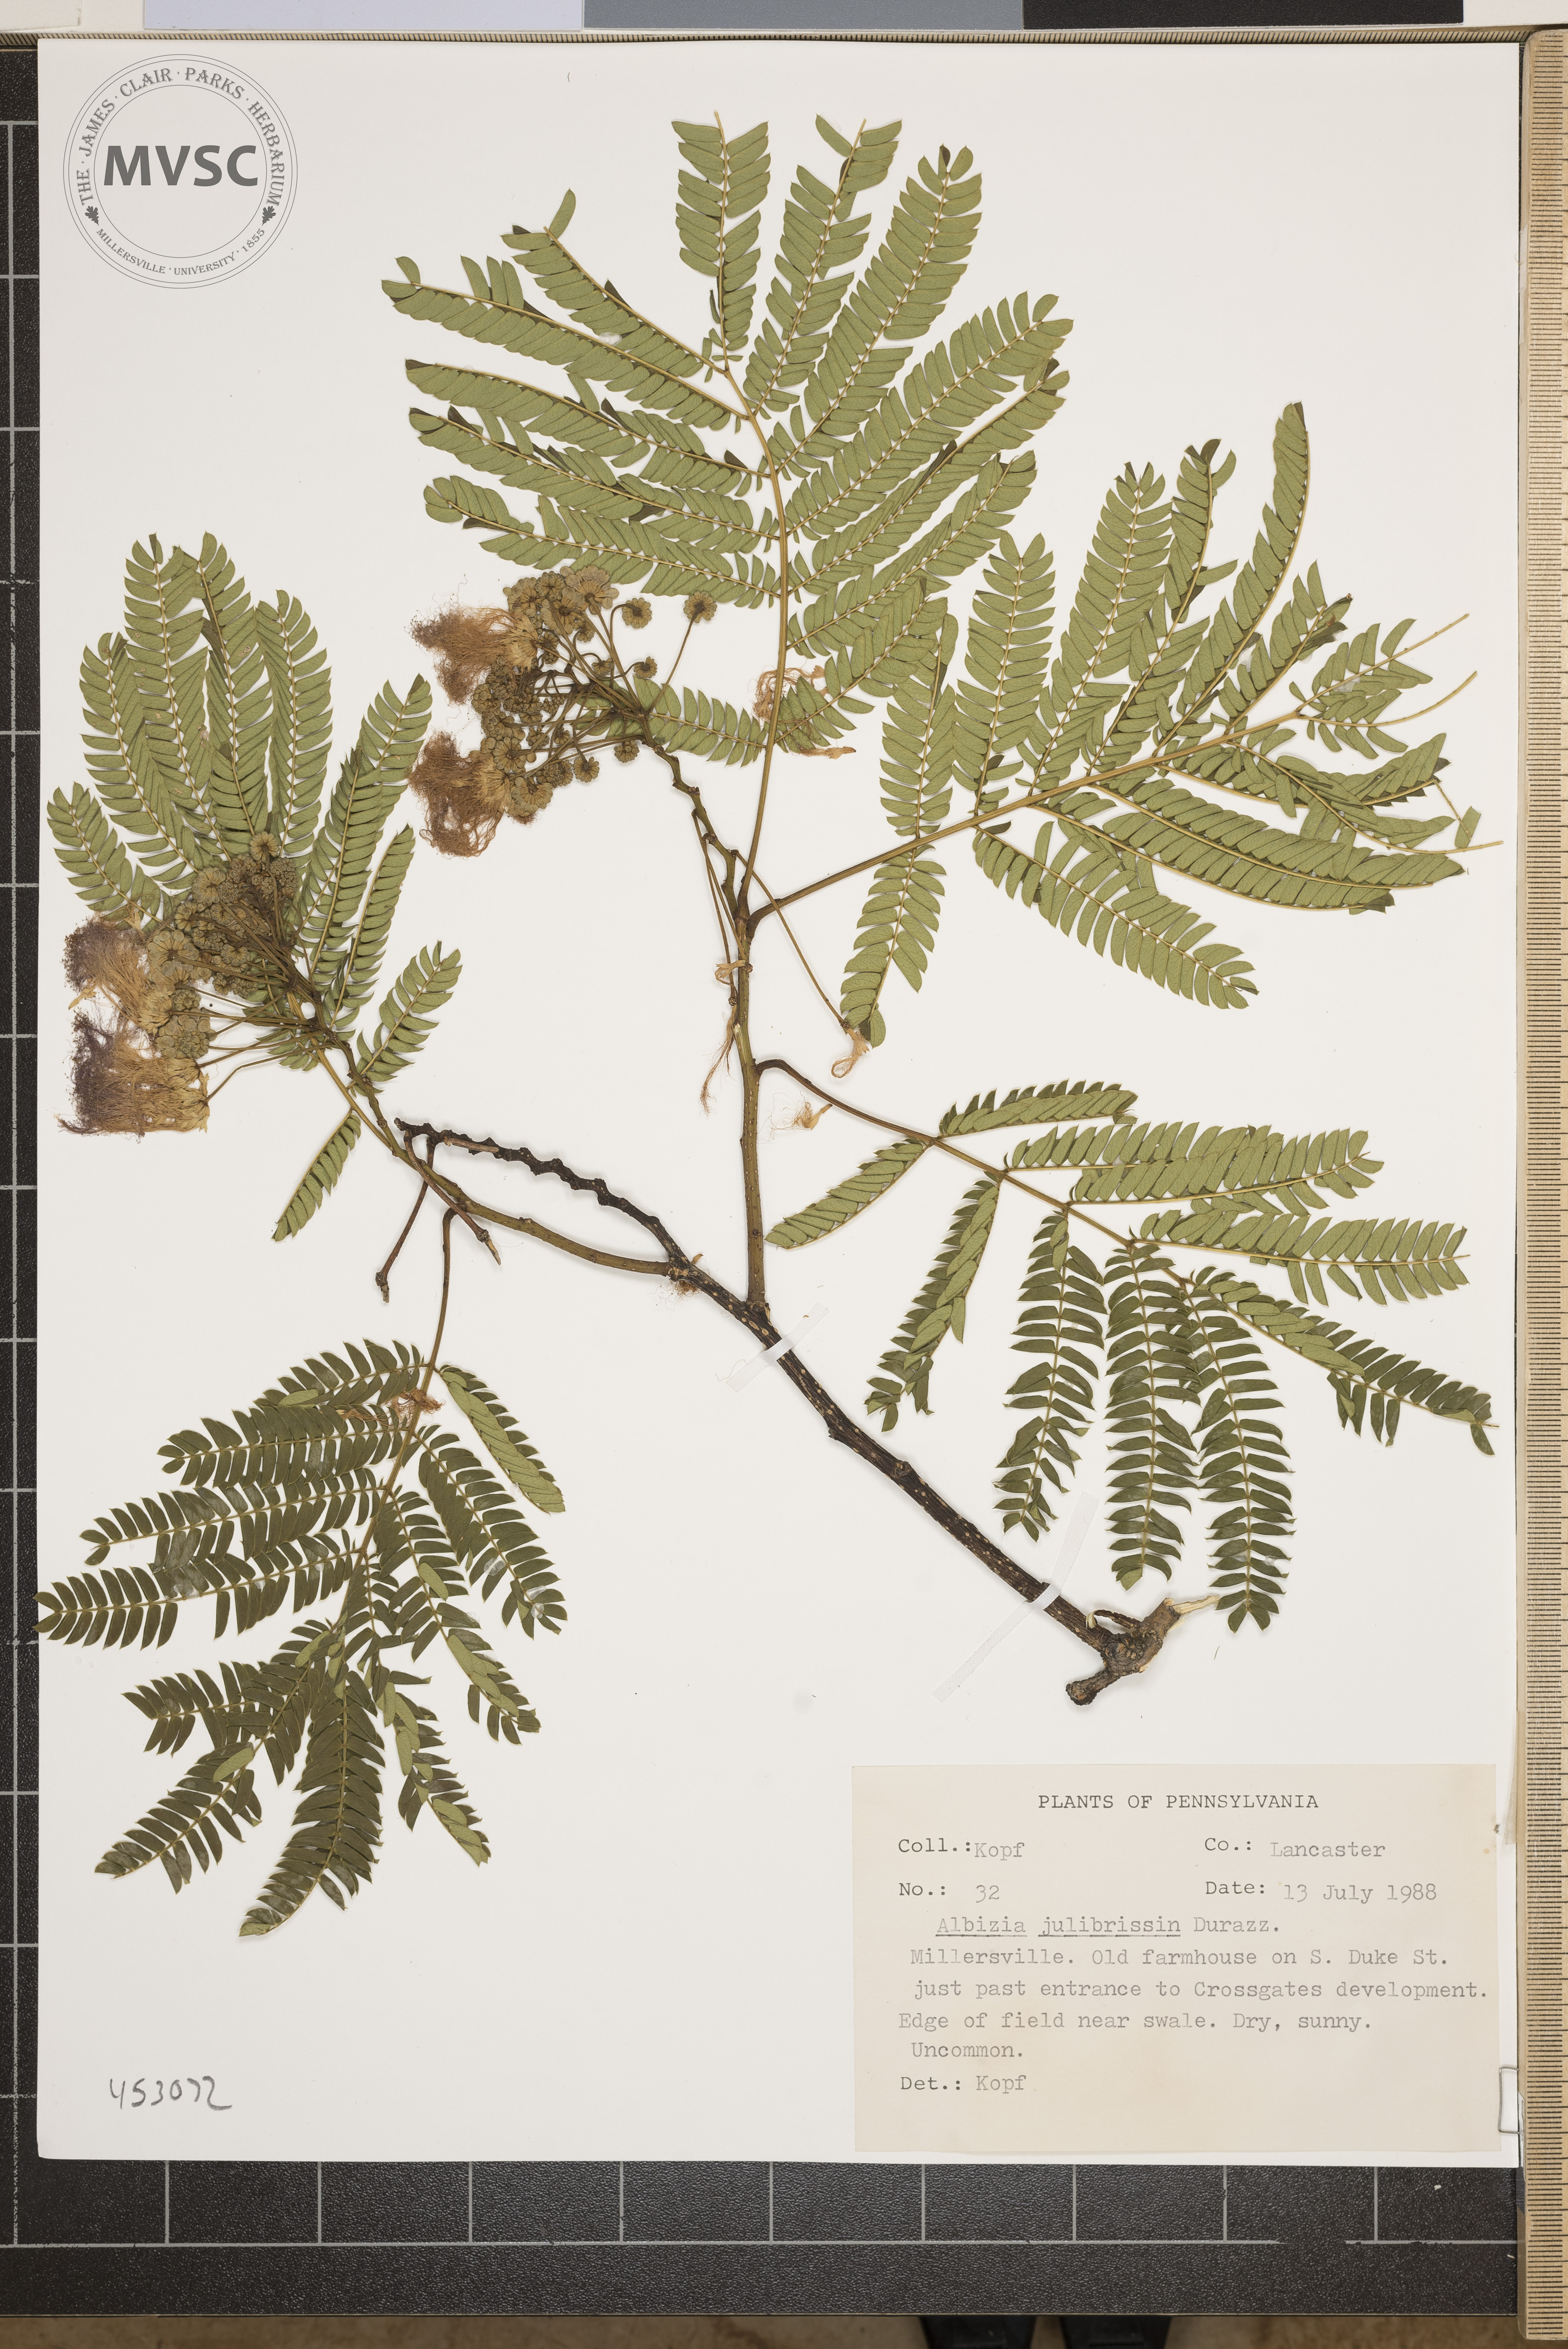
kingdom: Plantae
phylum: Tracheophyta
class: Magnoliopsida
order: Fabales
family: Fabaceae
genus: Albizia
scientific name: Albizia julibrissin
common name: Silktree
